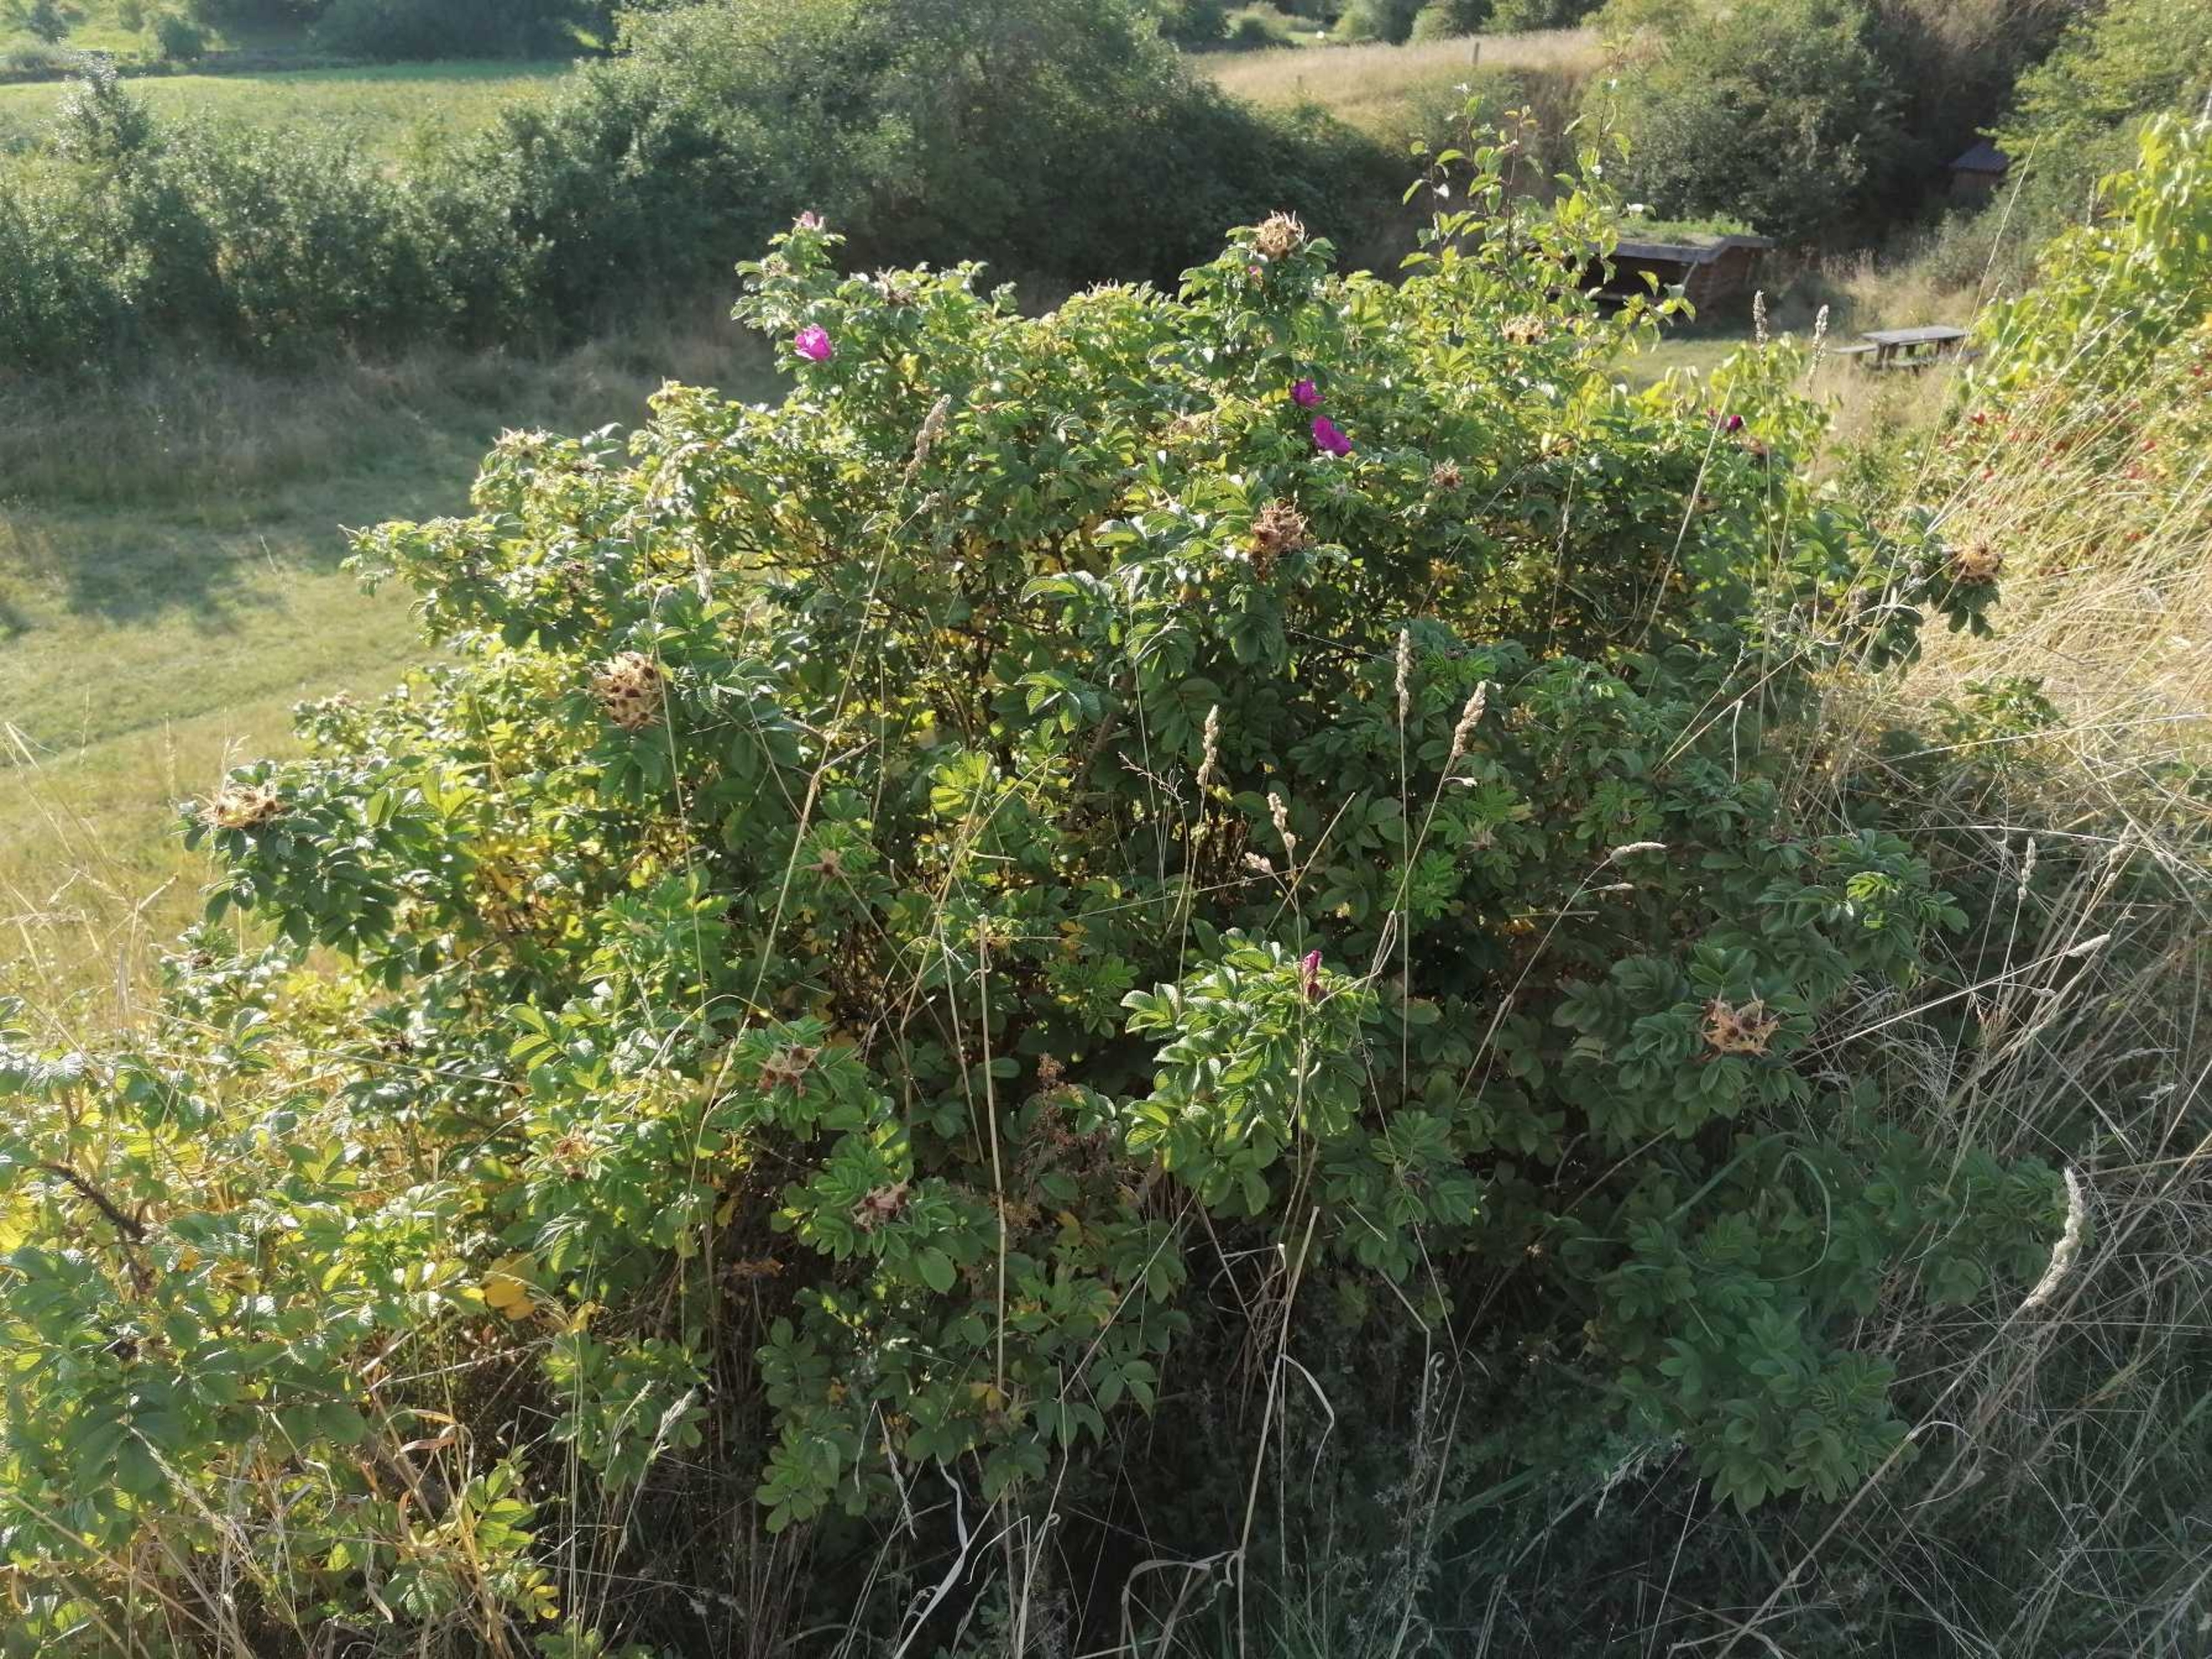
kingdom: Plantae
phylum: Tracheophyta
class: Magnoliopsida
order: Rosales
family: Rosaceae
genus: Rosa
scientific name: Rosa rugosa
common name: Rynket rose
